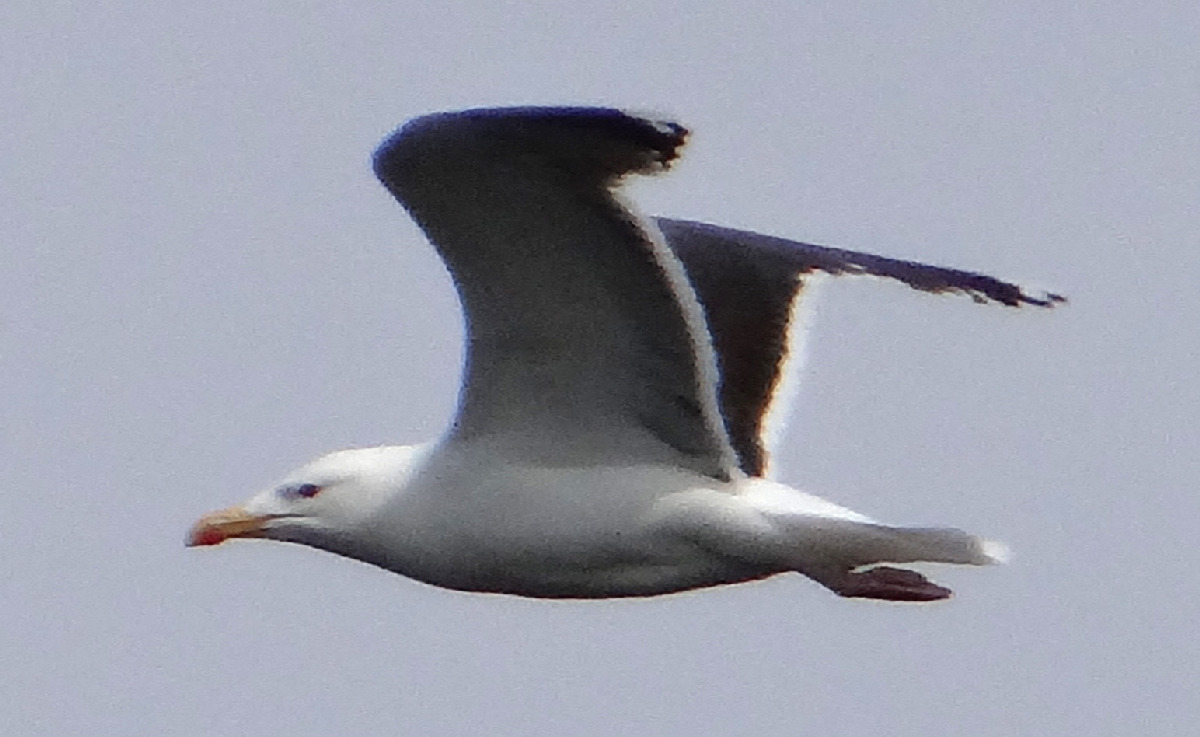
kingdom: Animalia
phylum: Chordata
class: Aves
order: Charadriiformes
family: Laridae
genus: Larus
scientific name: Larus marinus
